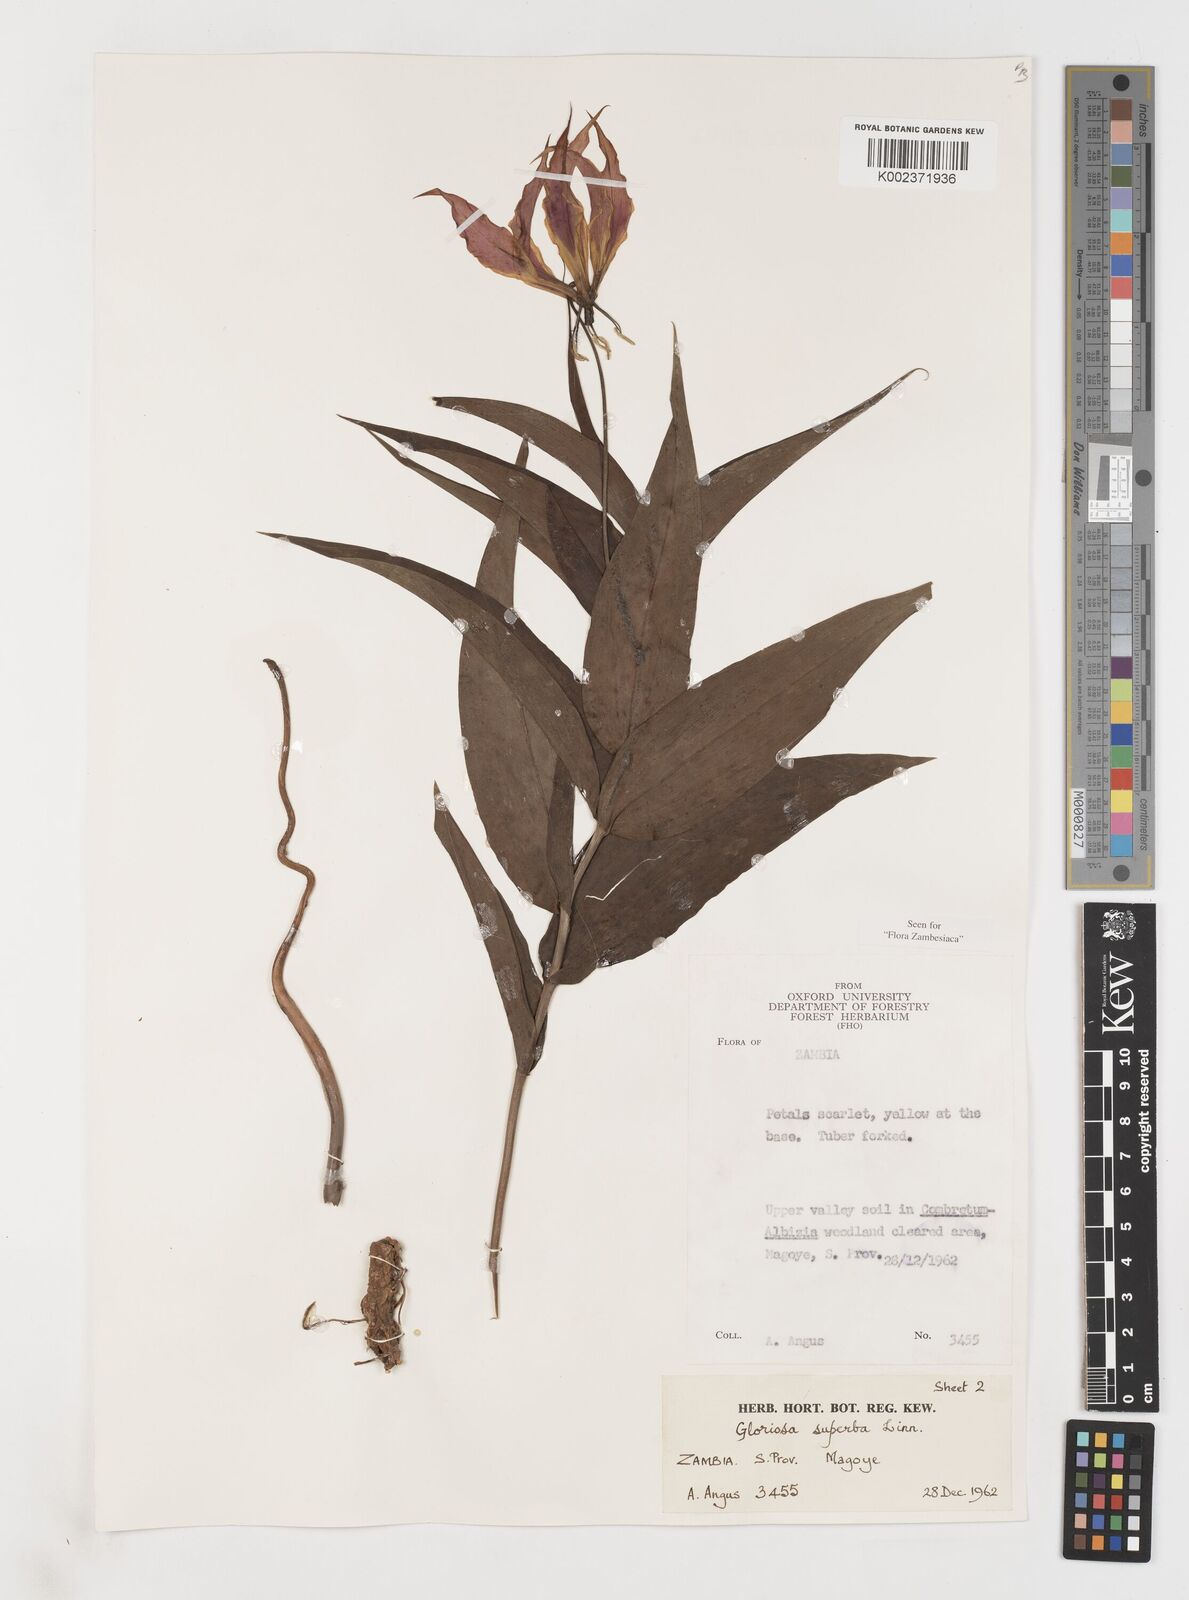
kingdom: Plantae
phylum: Tracheophyta
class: Liliopsida
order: Liliales
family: Colchicaceae
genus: Gloriosa
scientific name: Gloriosa simplex
